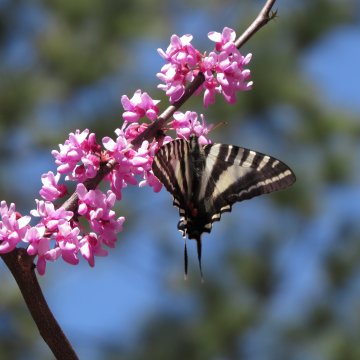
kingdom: Animalia
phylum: Arthropoda
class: Insecta
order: Lepidoptera
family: Papilionidae
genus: Protographium
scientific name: Protographium marcellus
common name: Zebra Swallowtail
